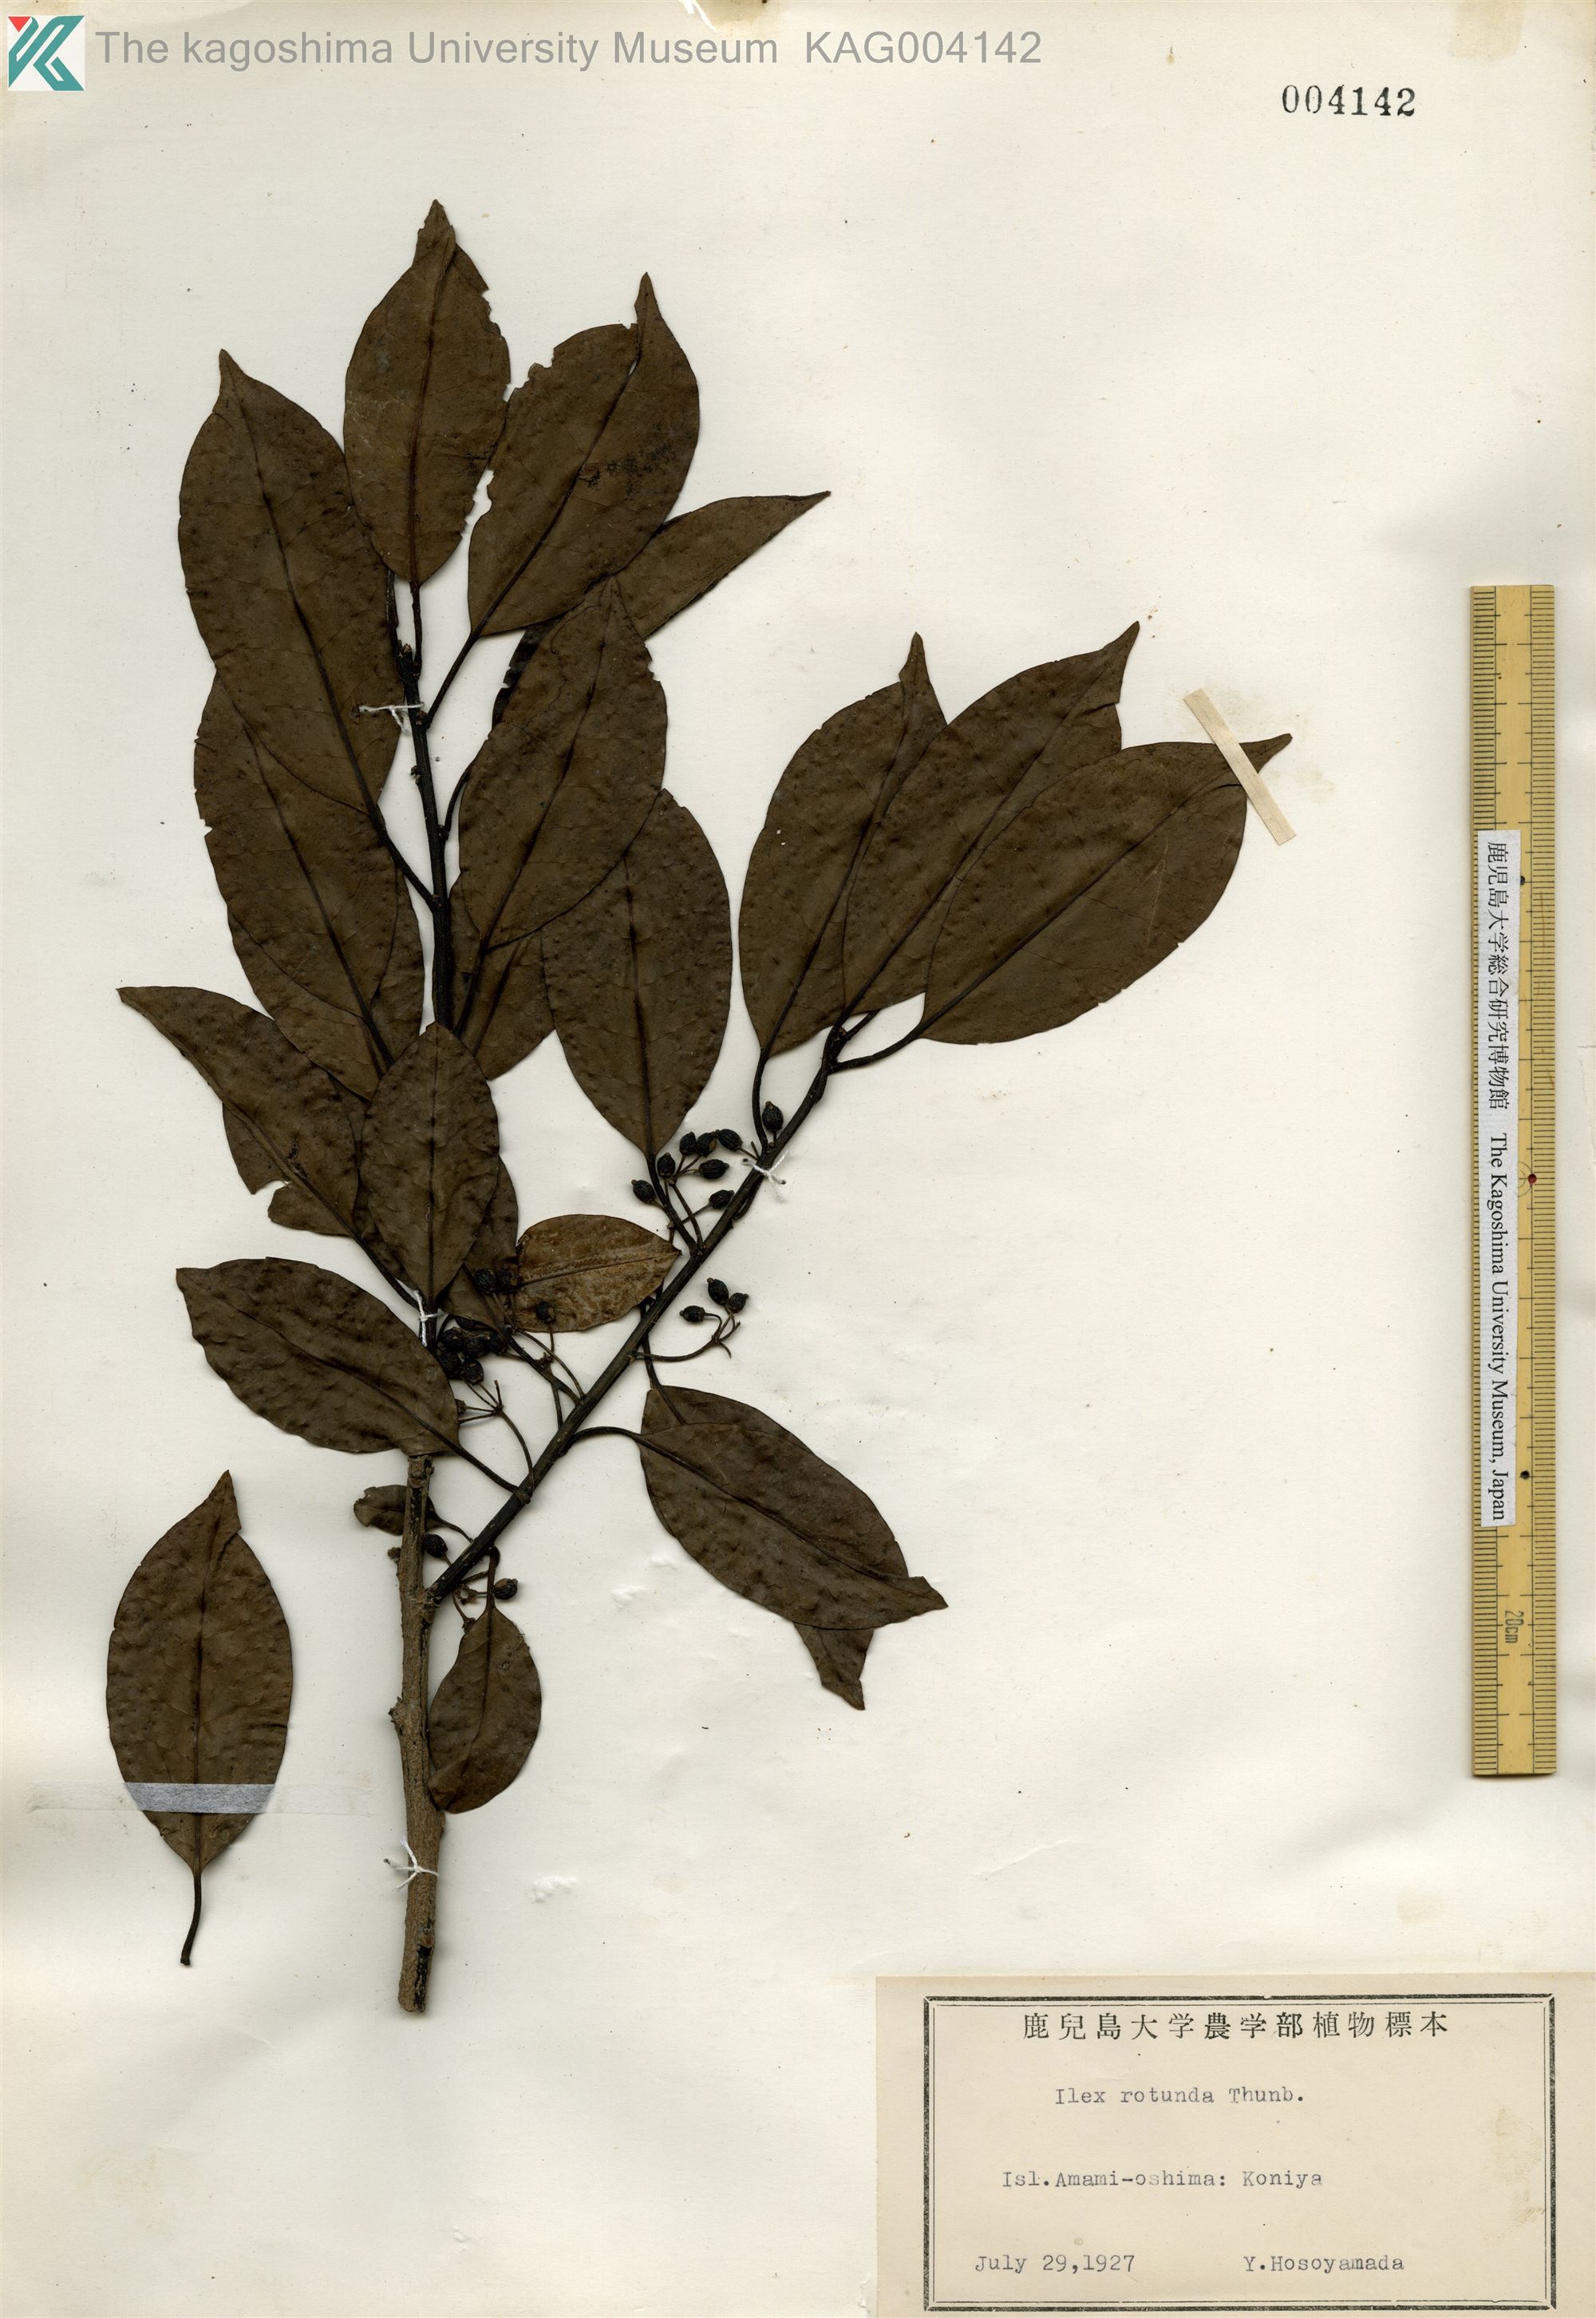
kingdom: Plantae
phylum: Tracheophyta
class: Magnoliopsida
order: Aquifoliales
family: Aquifoliaceae
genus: Ilex
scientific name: Ilex rotunda
